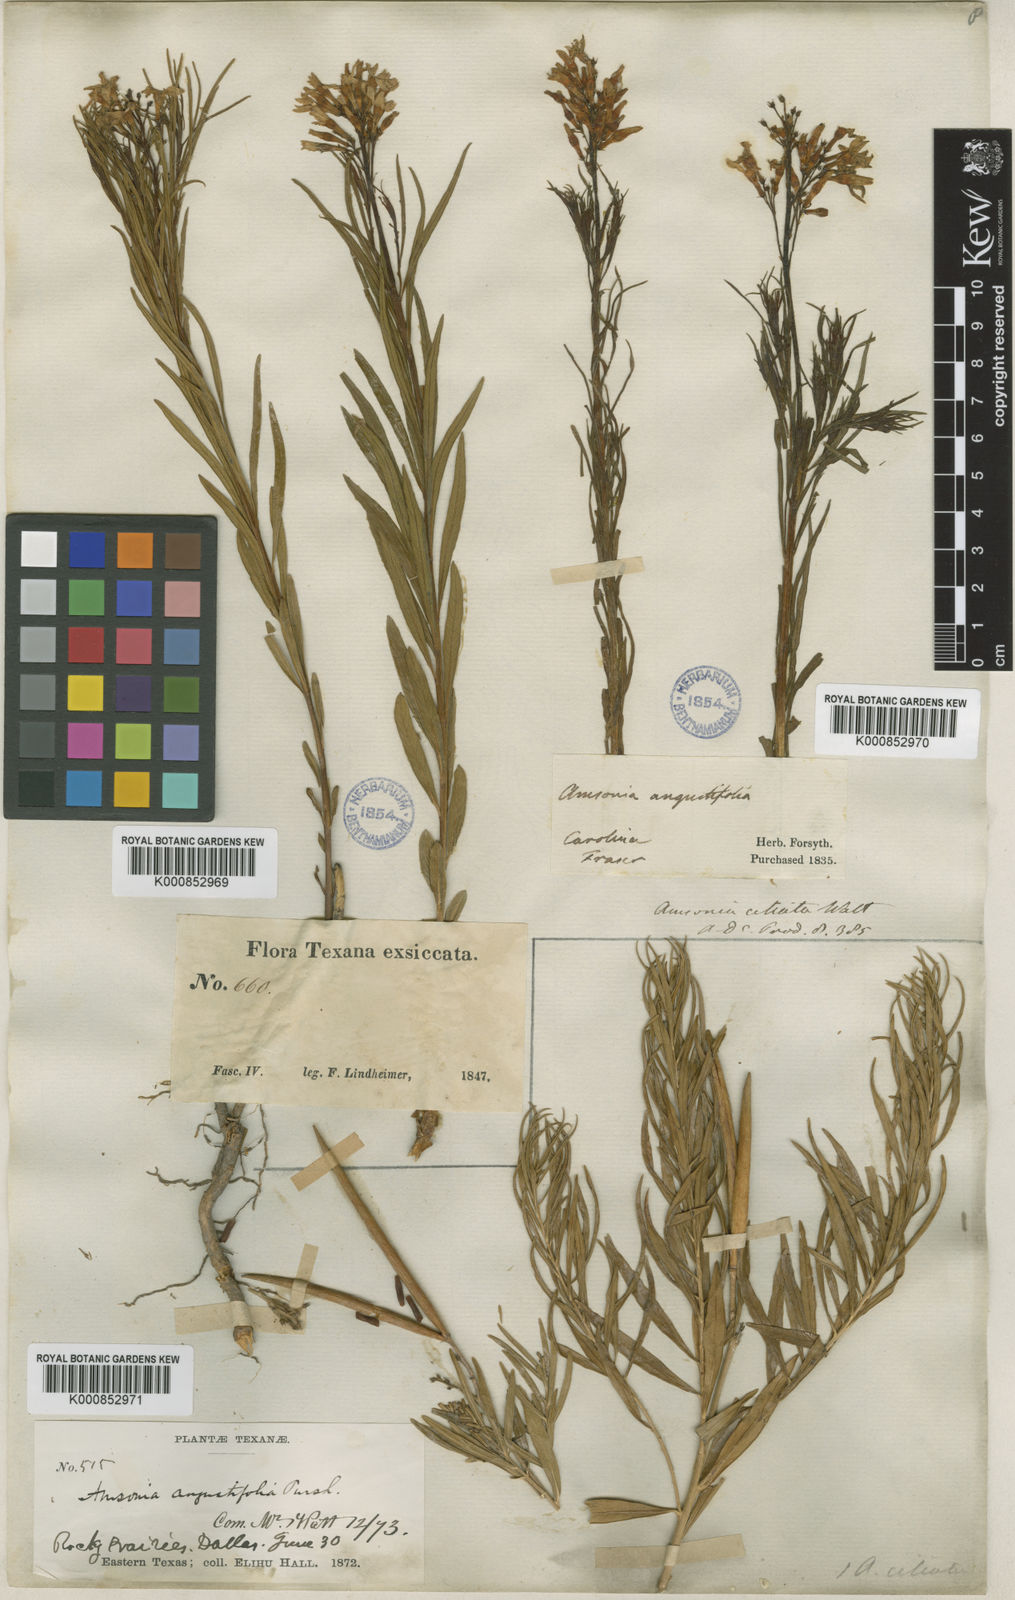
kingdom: Plantae
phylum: Tracheophyta
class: Magnoliopsida
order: Gentianales
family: Apocynaceae
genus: Amsonia
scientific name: Amsonia ciliata
